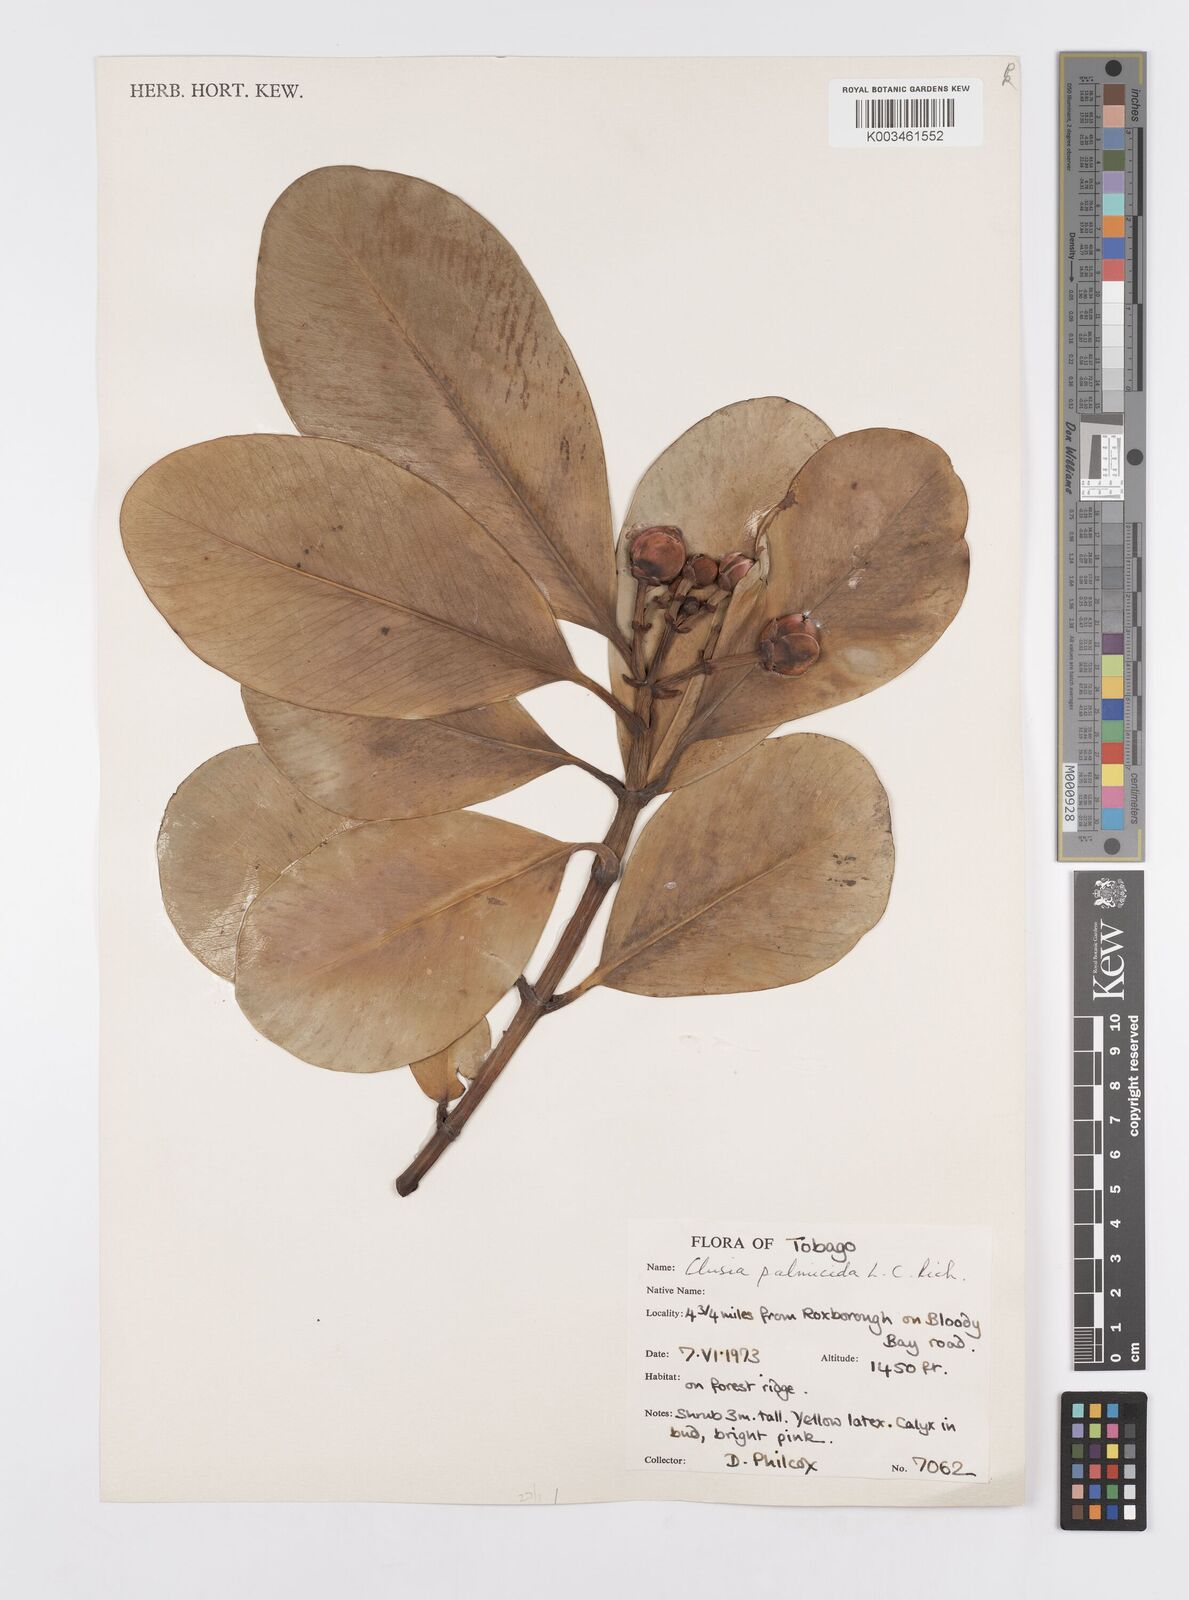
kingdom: Plantae
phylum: Tracheophyta
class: Magnoliopsida
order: Malpighiales
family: Clusiaceae
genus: Clusia
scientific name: Clusia palmicida
